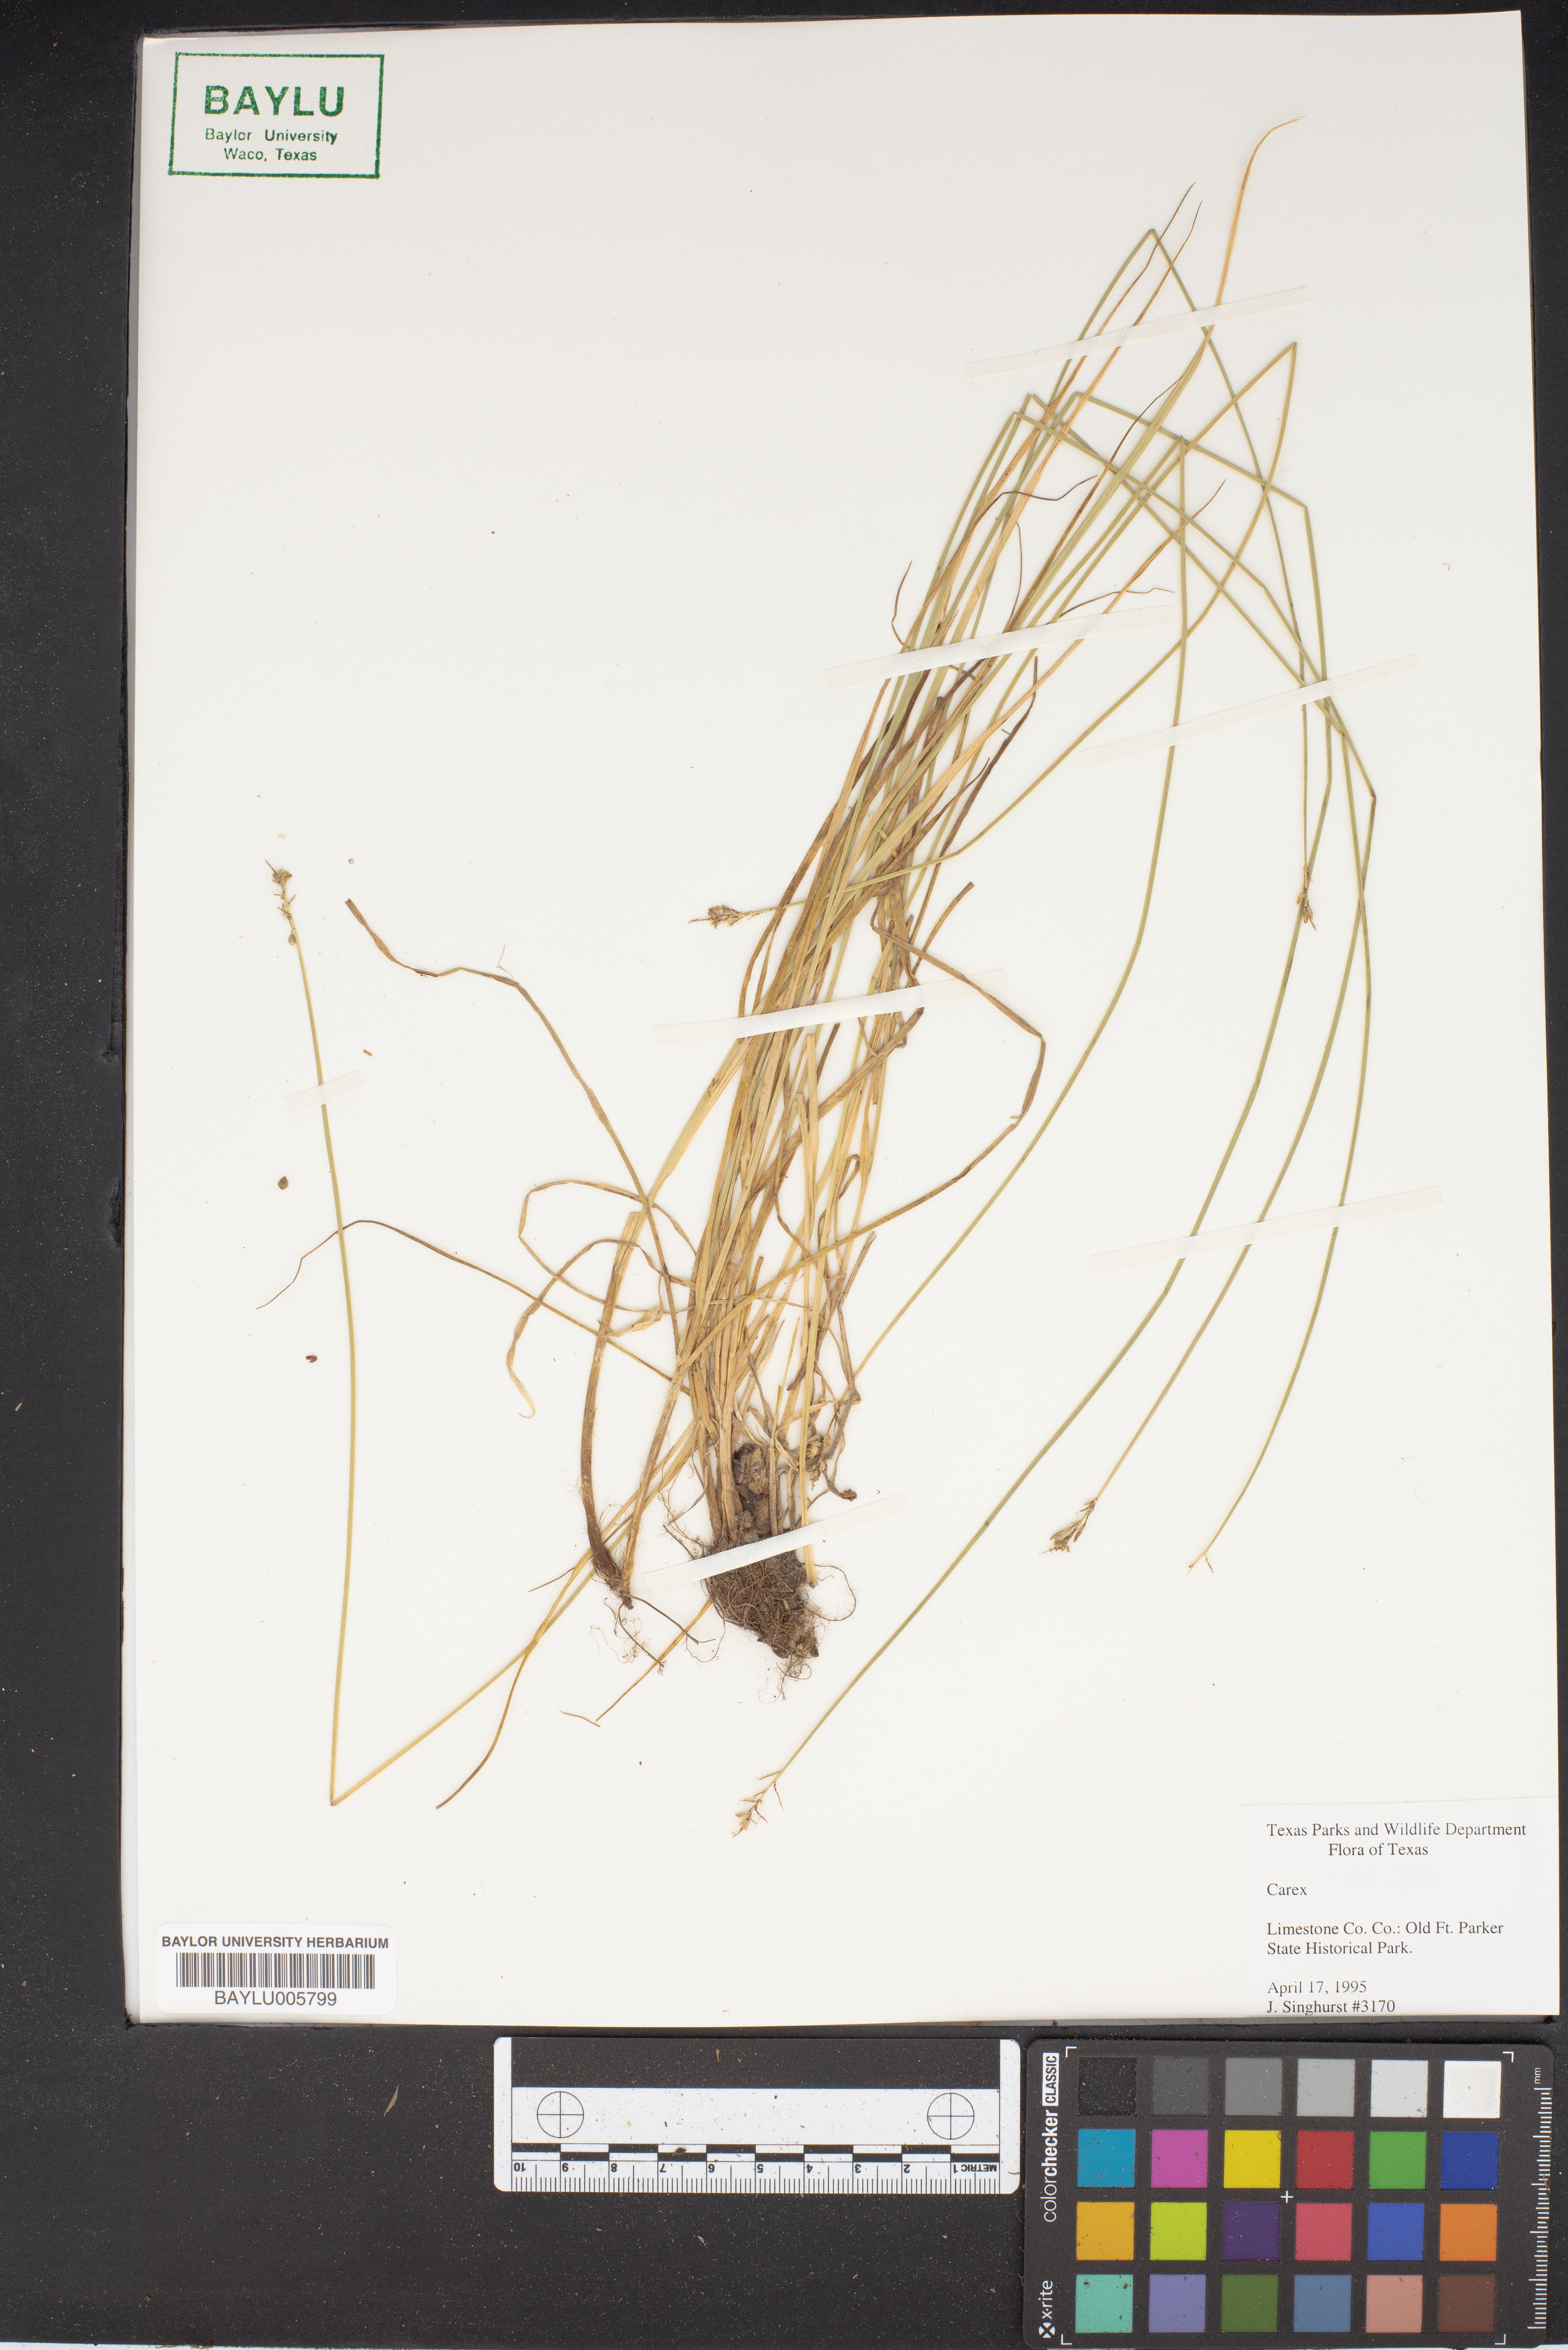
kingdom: Plantae
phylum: Tracheophyta
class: Liliopsida
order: Poales
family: Cyperaceae
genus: Carex
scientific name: Carex
